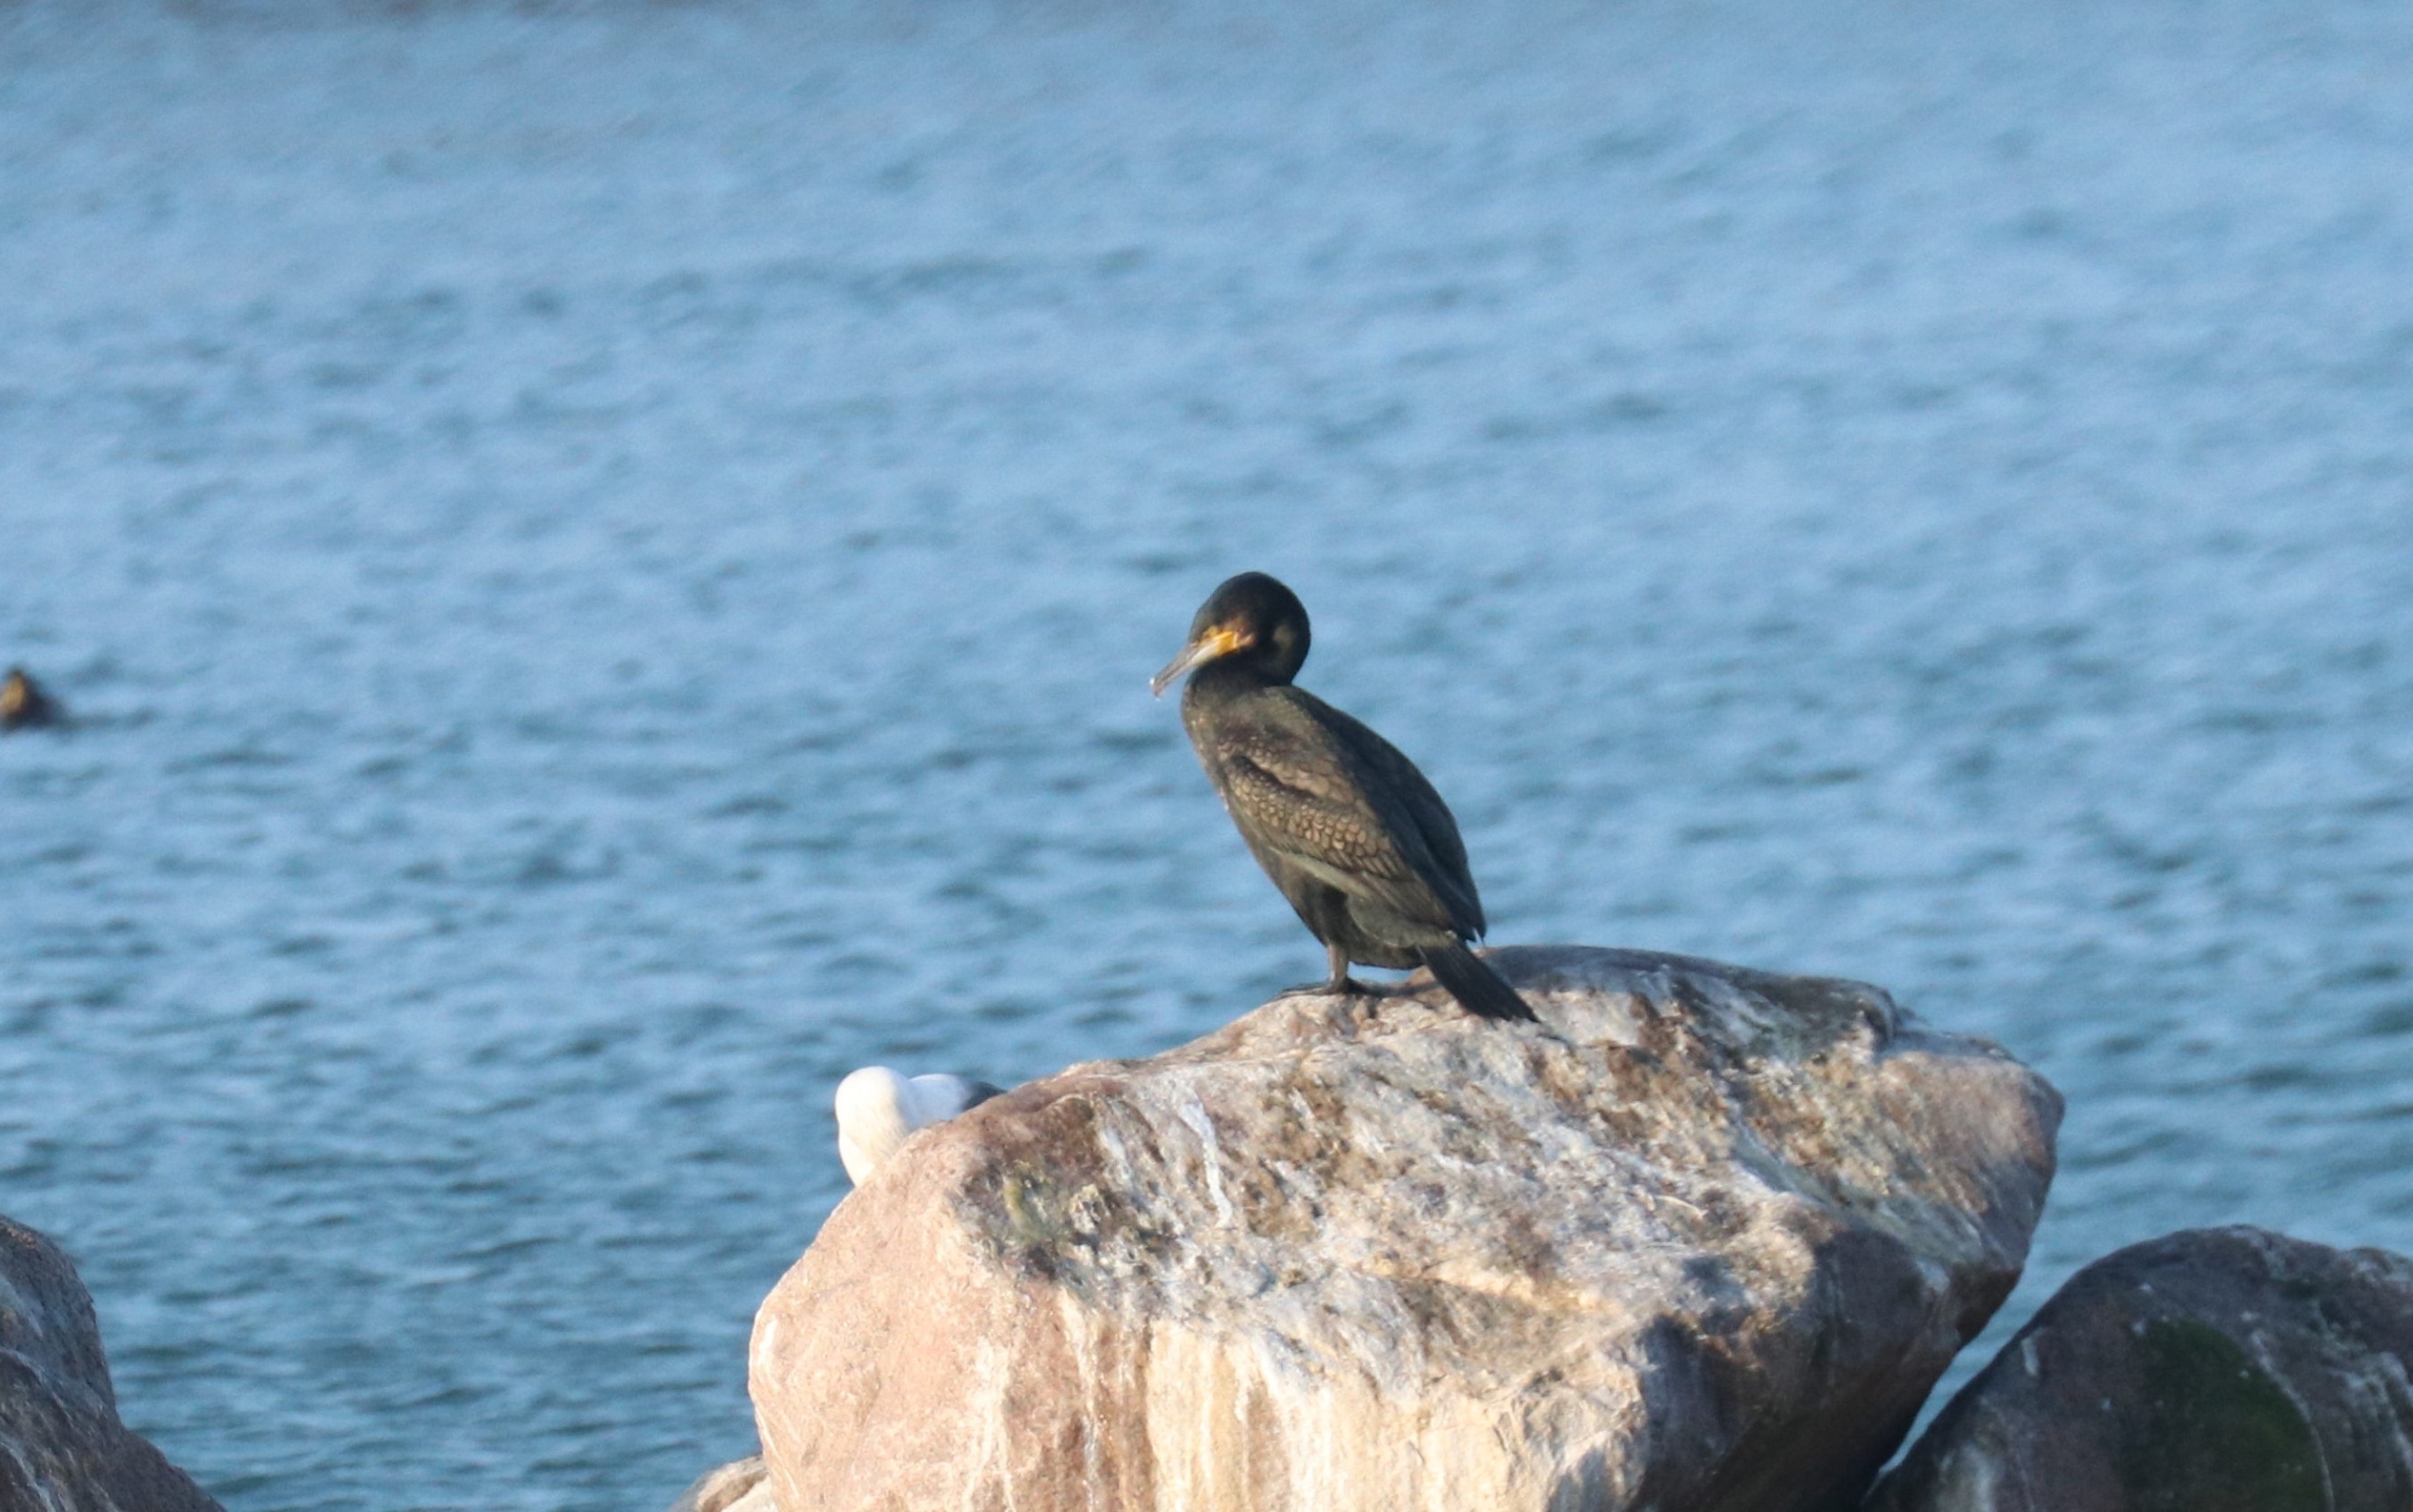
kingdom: Animalia
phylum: Chordata
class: Aves
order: Suliformes
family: Phalacrocoracidae
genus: Phalacrocorax
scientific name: Phalacrocorax carbo
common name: Skarv
